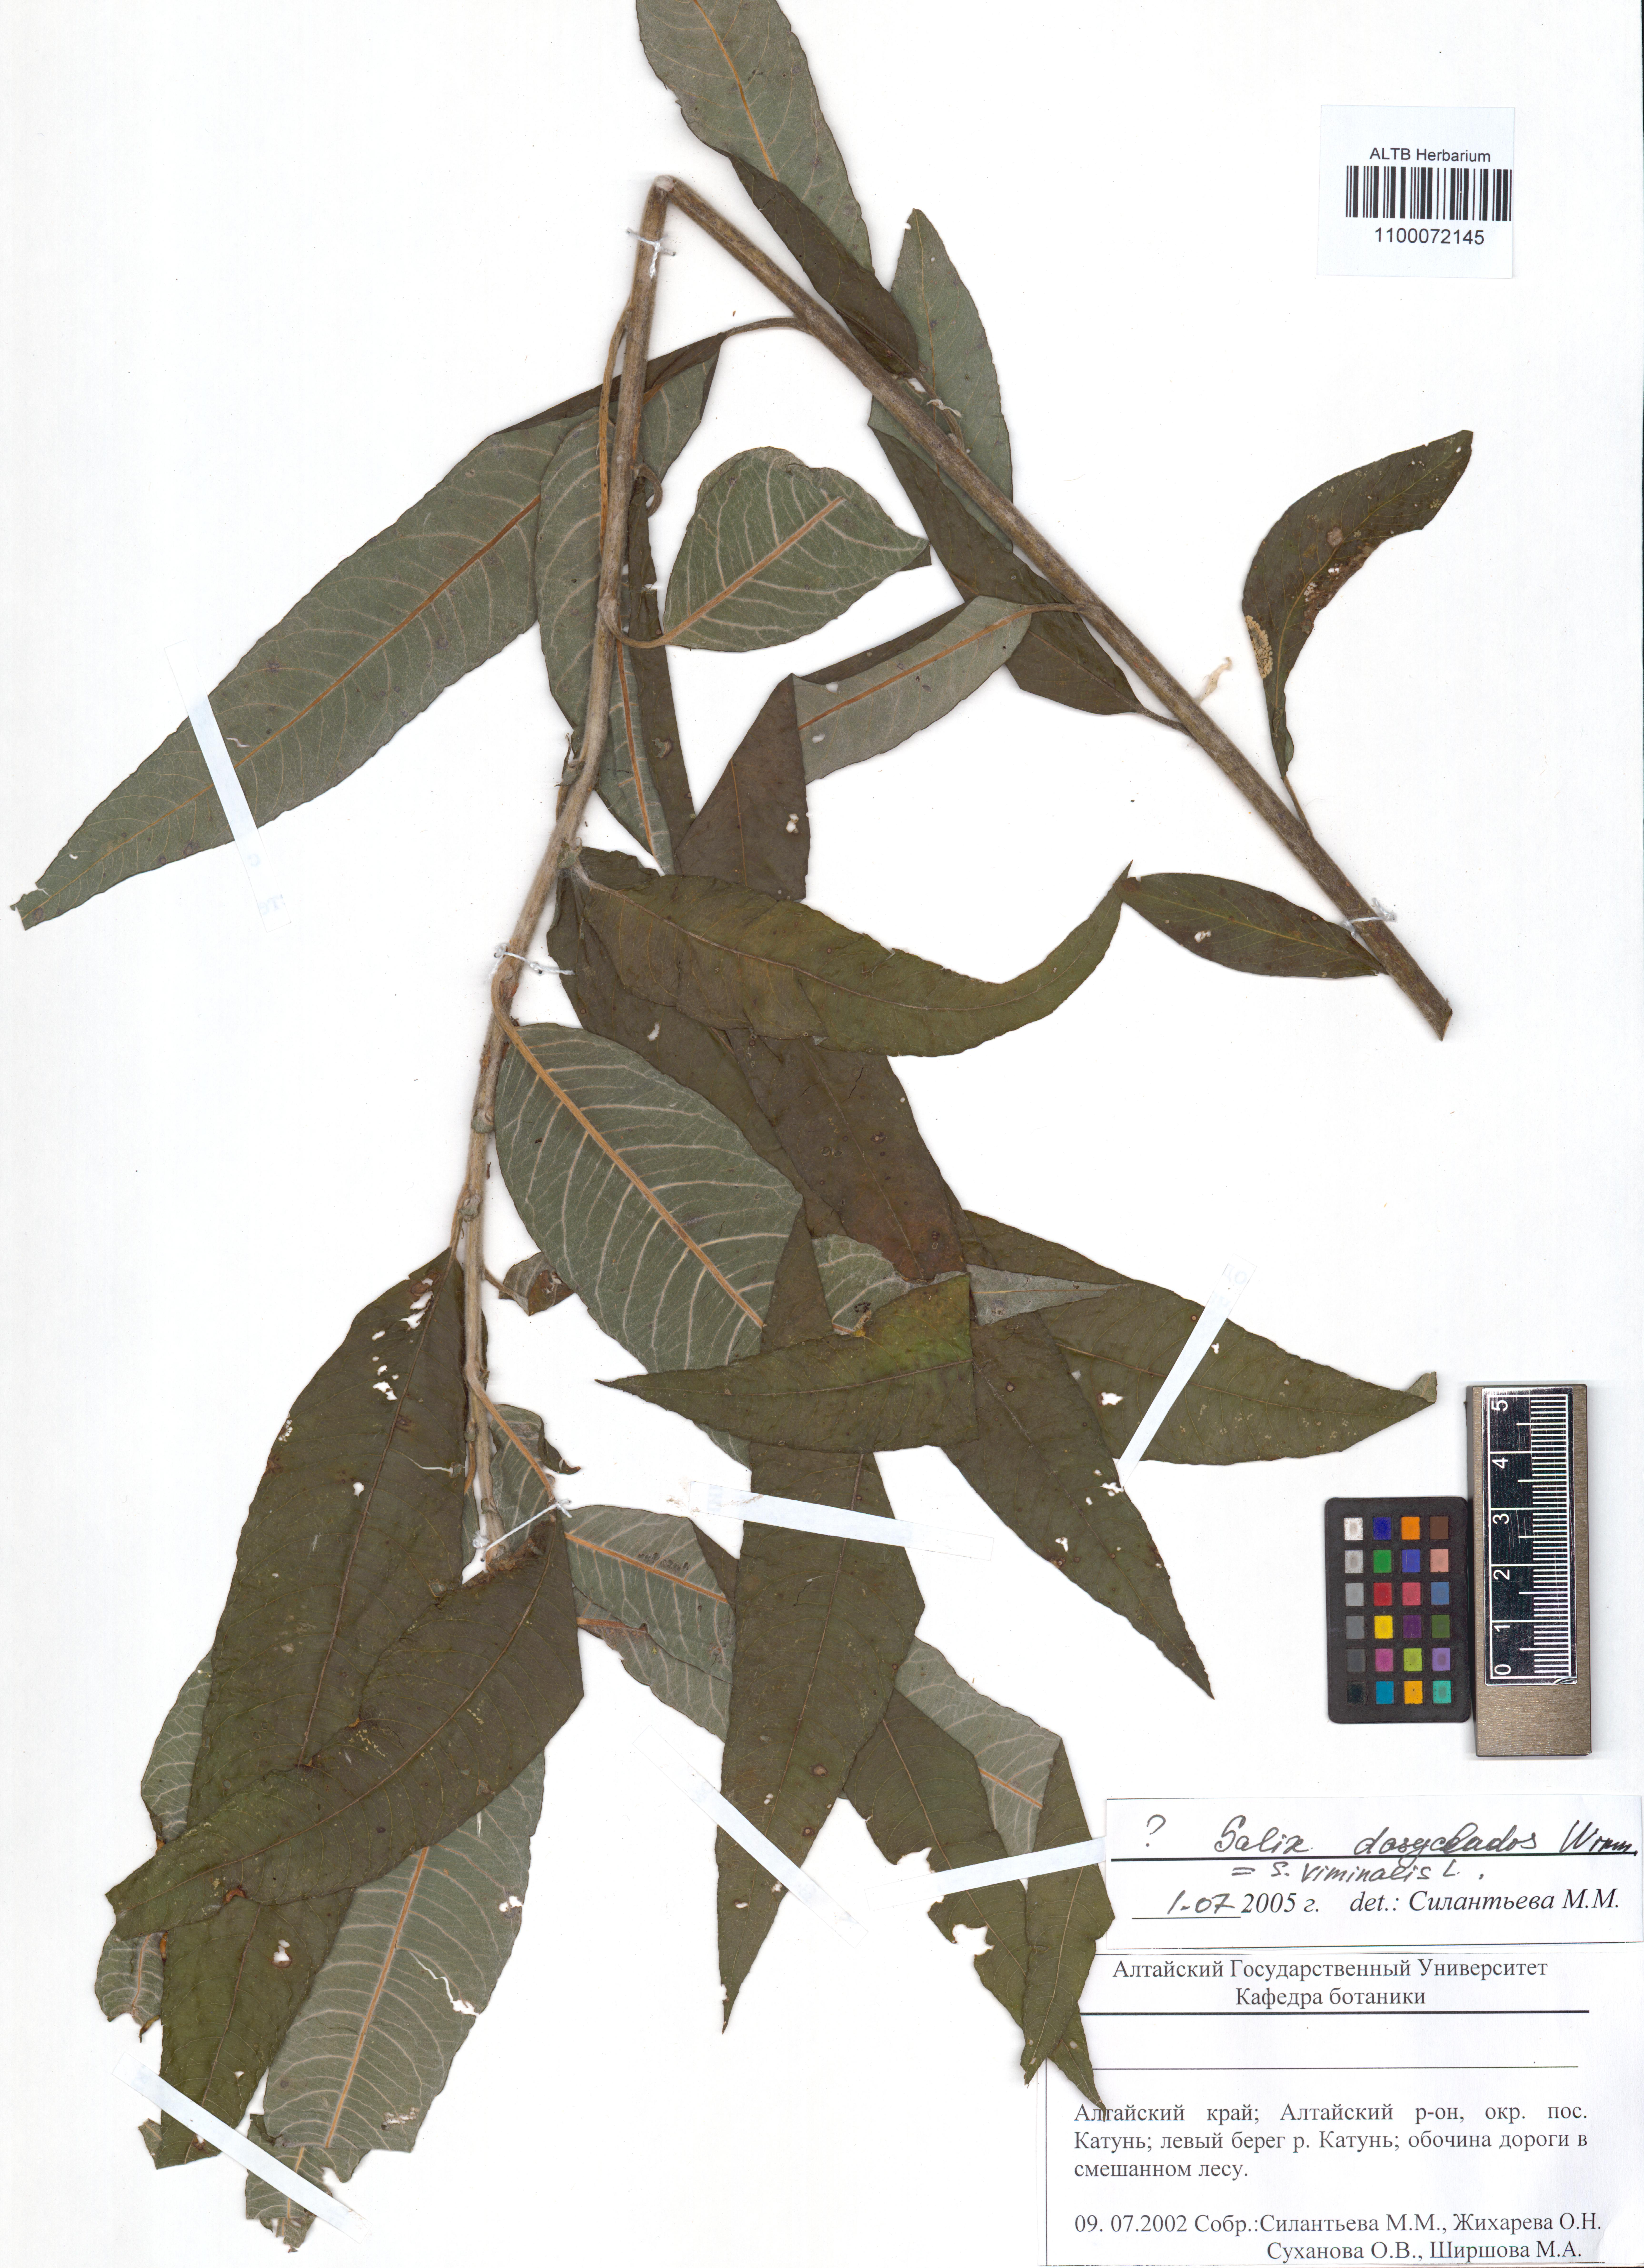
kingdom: Plantae
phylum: Tracheophyta
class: Magnoliopsida
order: Malpighiales
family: Salicaceae
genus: Salix
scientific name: Salix gmelinii
